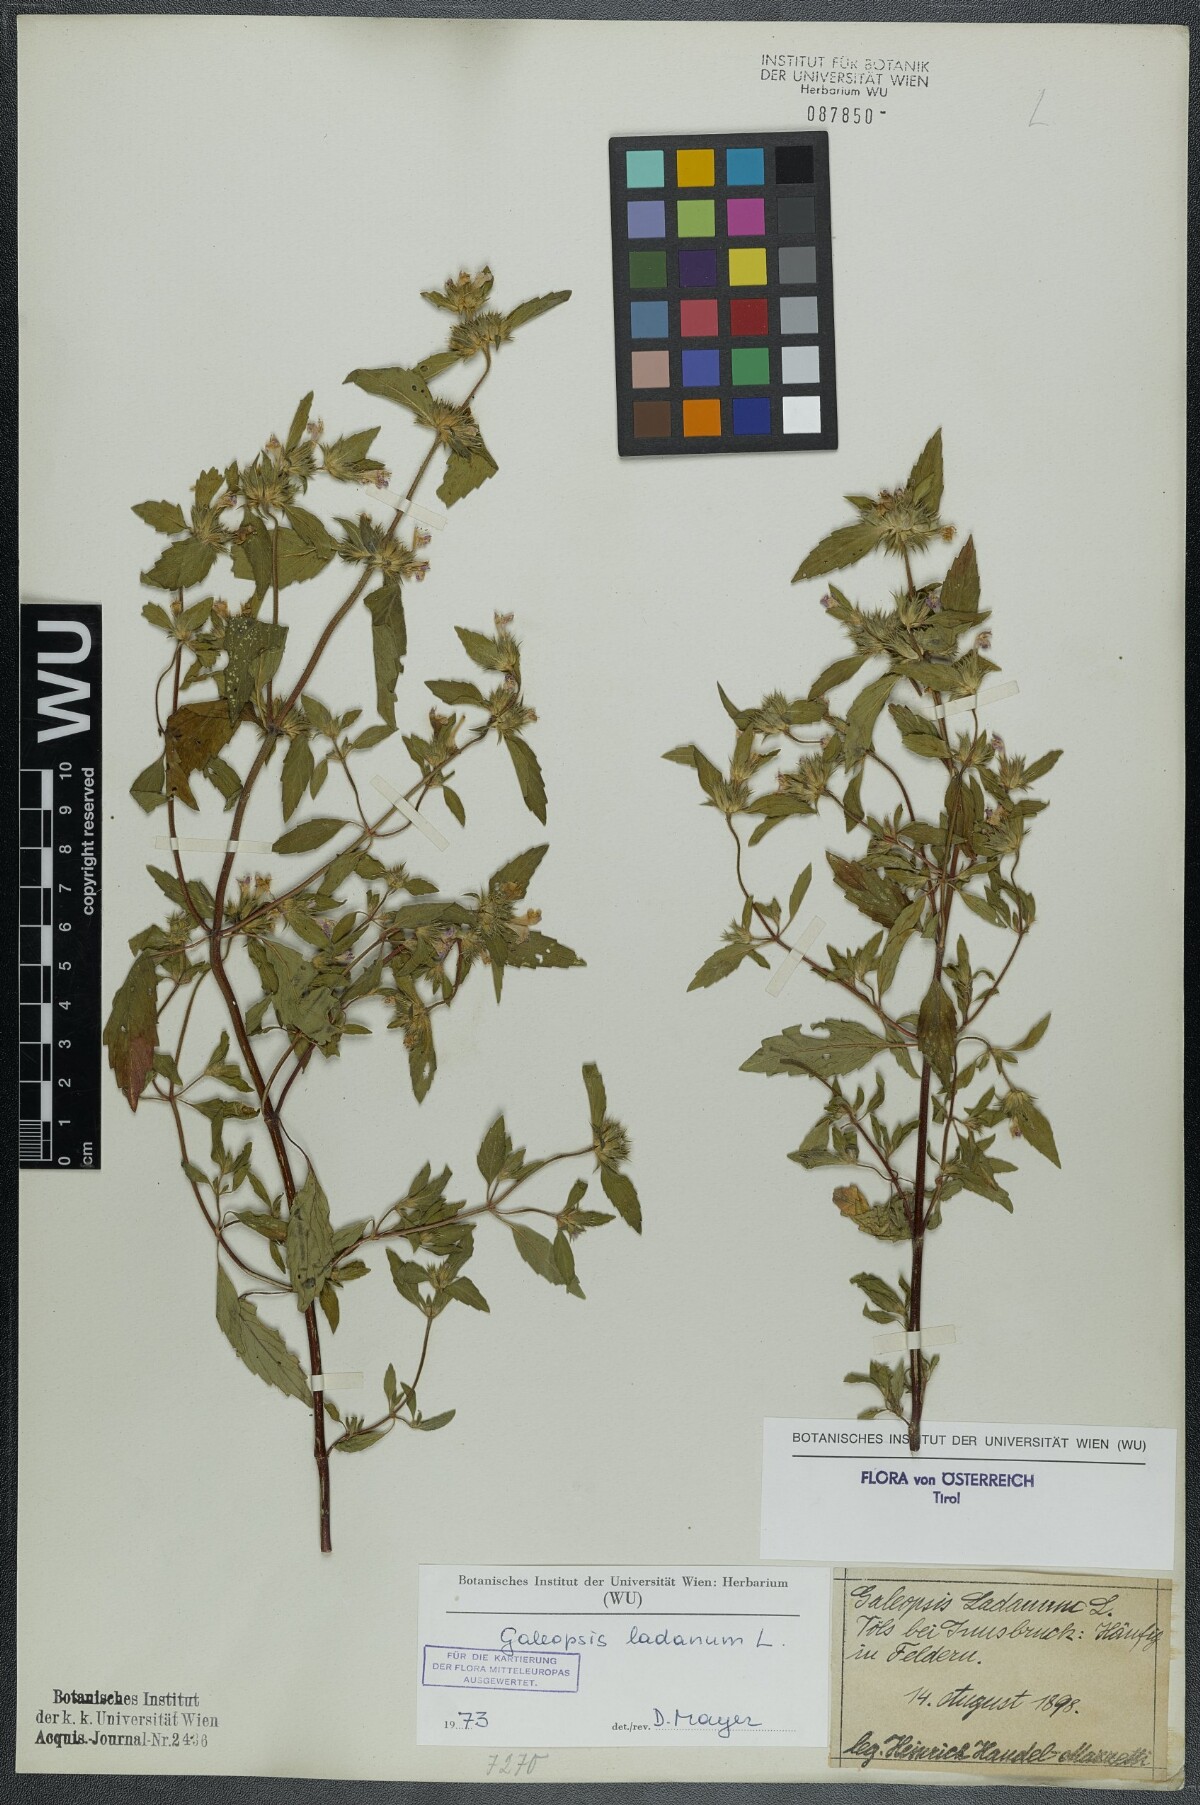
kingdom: Plantae
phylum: Tracheophyta
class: Magnoliopsida
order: Lamiales
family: Lamiaceae
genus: Galeopsis
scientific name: Galeopsis ladanum
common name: Broad-leaved hemp-nettle
